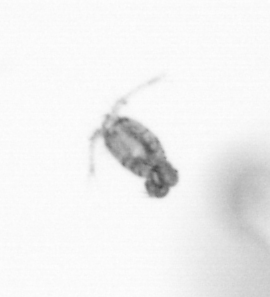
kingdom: Animalia
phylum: Arthropoda
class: Copepoda
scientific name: Copepoda
